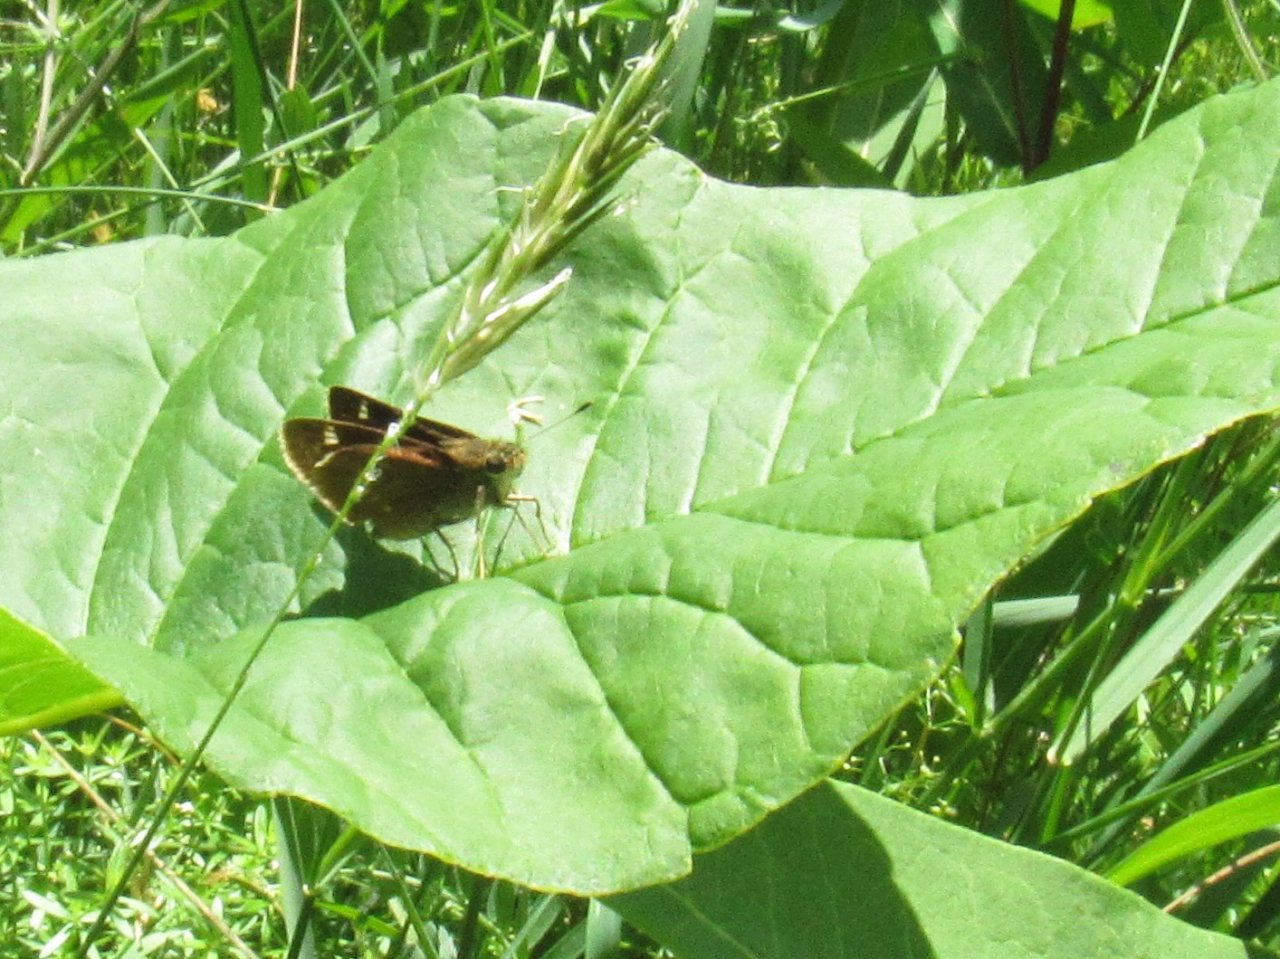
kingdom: Animalia
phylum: Arthropoda
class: Insecta
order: Lepidoptera
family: Hesperiidae
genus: Vernia
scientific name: Vernia verna
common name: Little Glassywing
